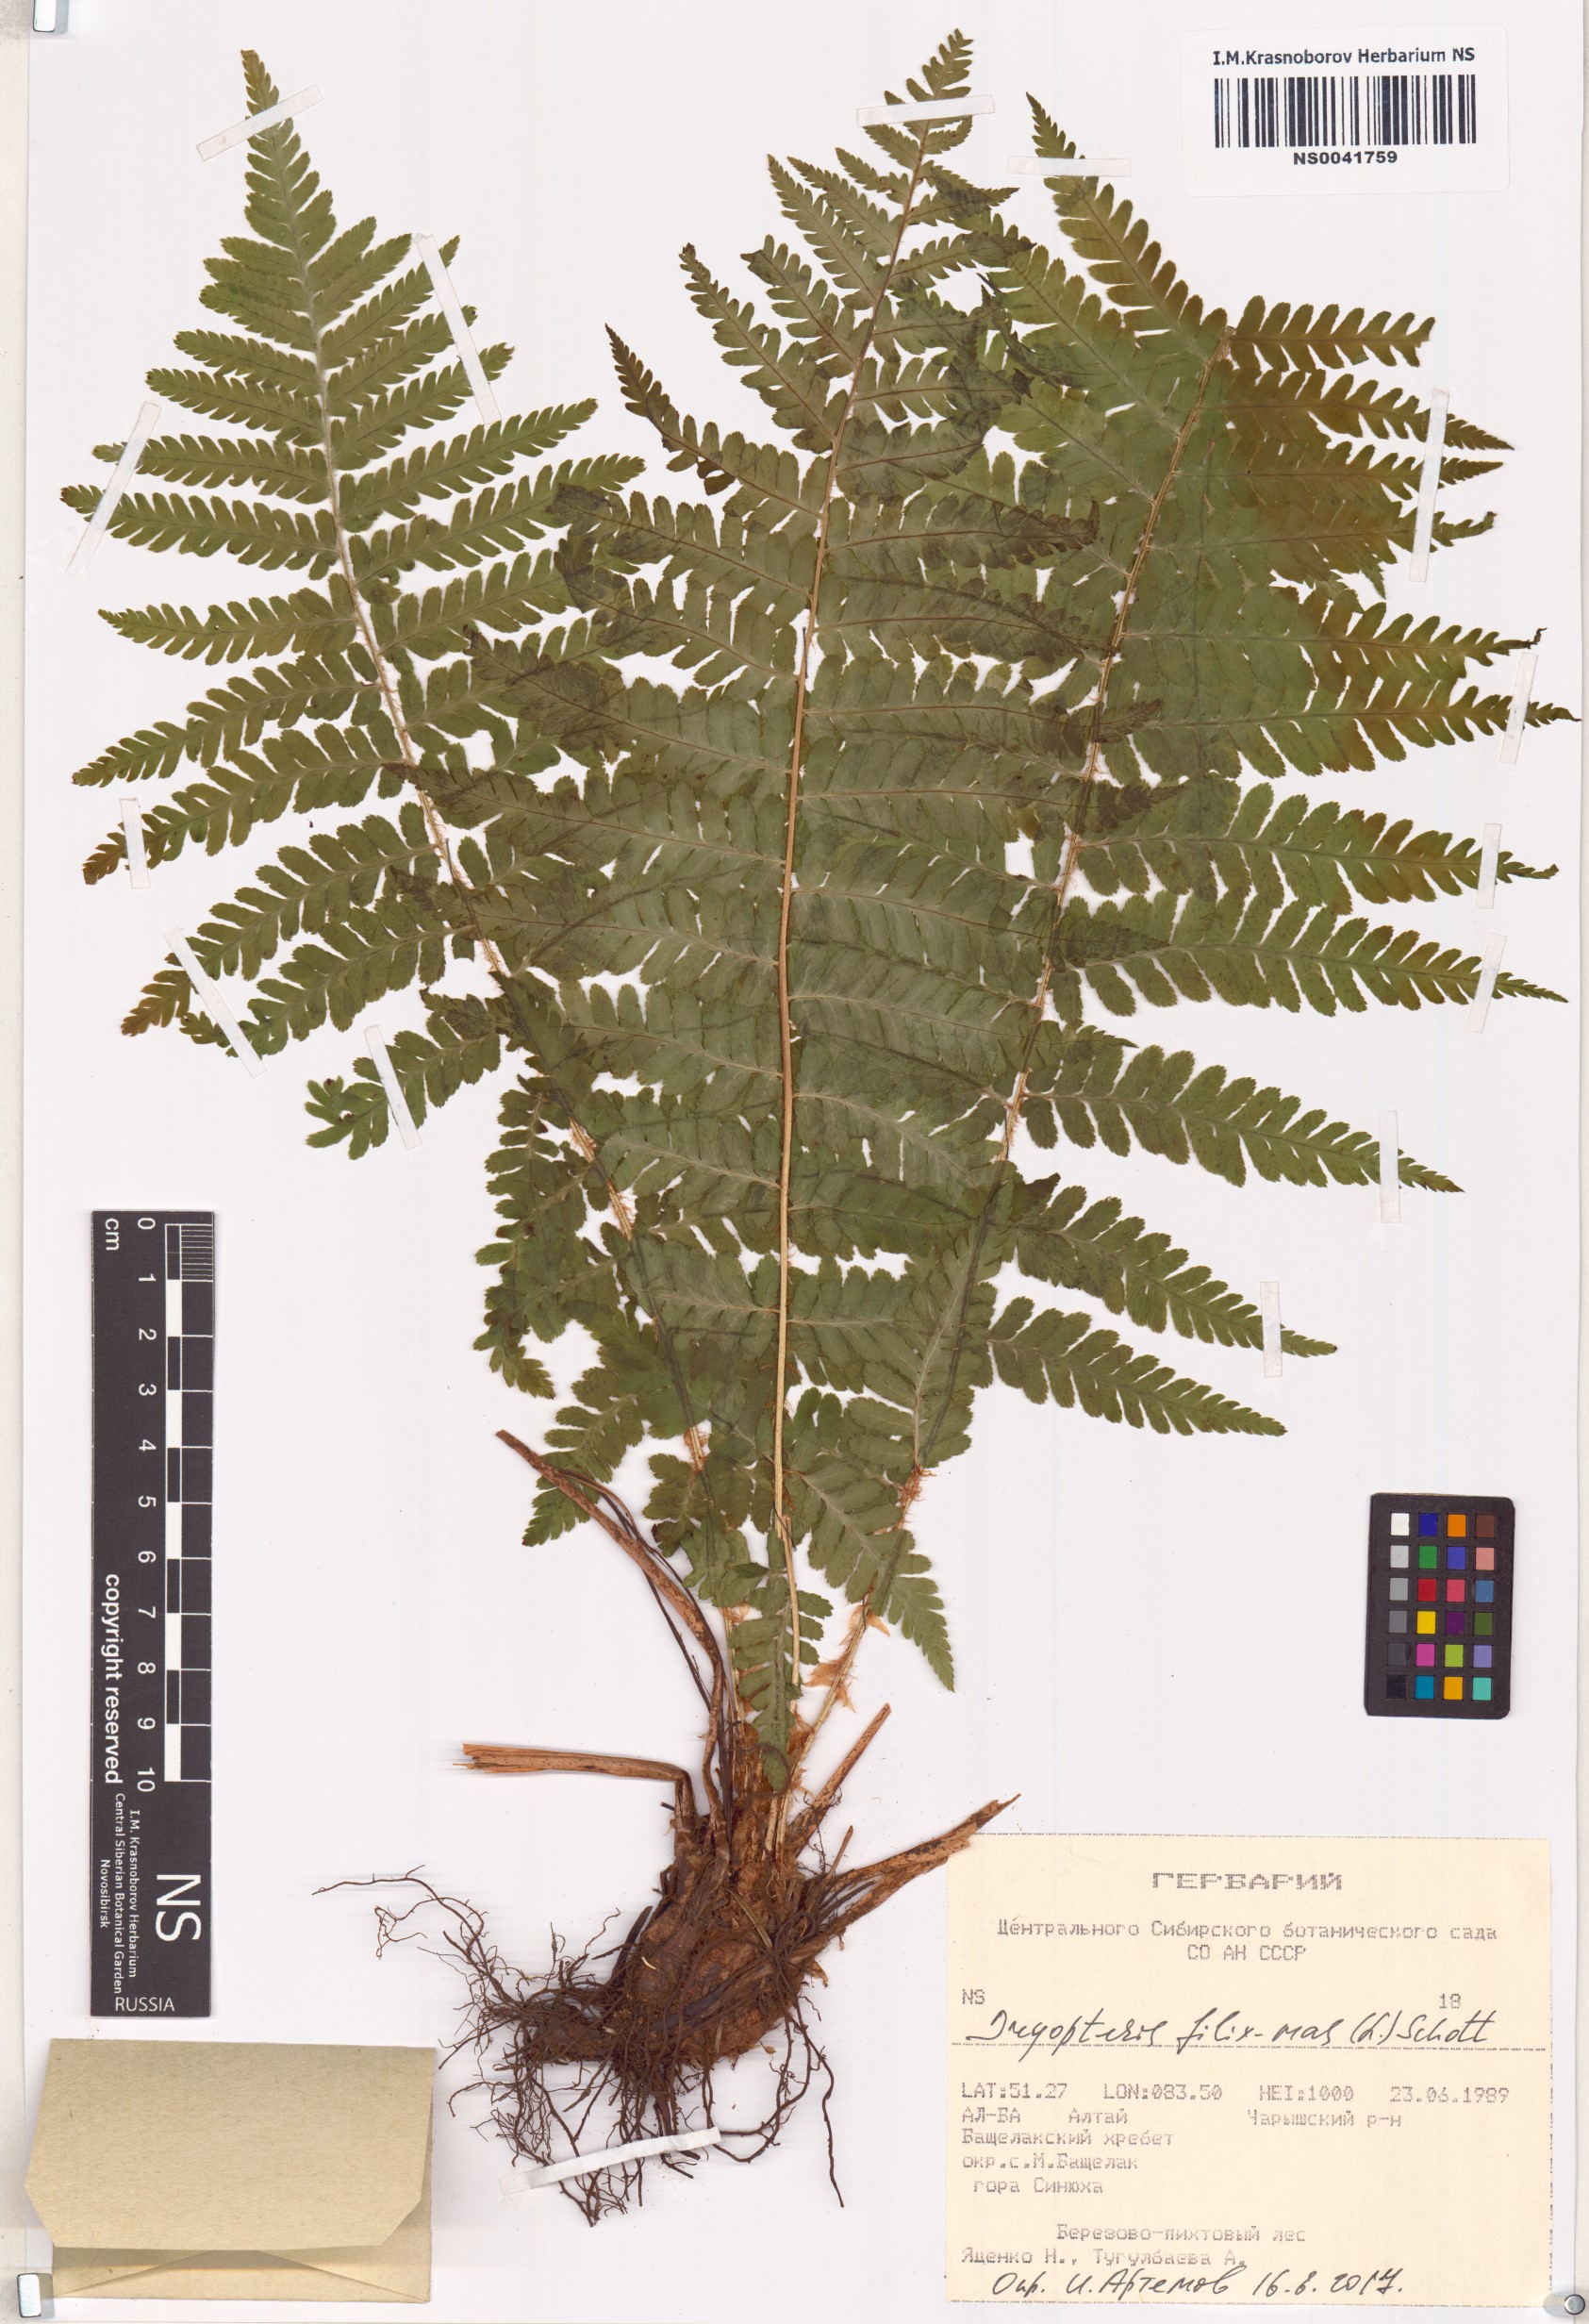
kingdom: Plantae
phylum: Tracheophyta
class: Polypodiopsida
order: Polypodiales
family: Dryopteridaceae
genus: Dryopteris
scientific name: Dryopteris filix-mas
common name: Male fern
